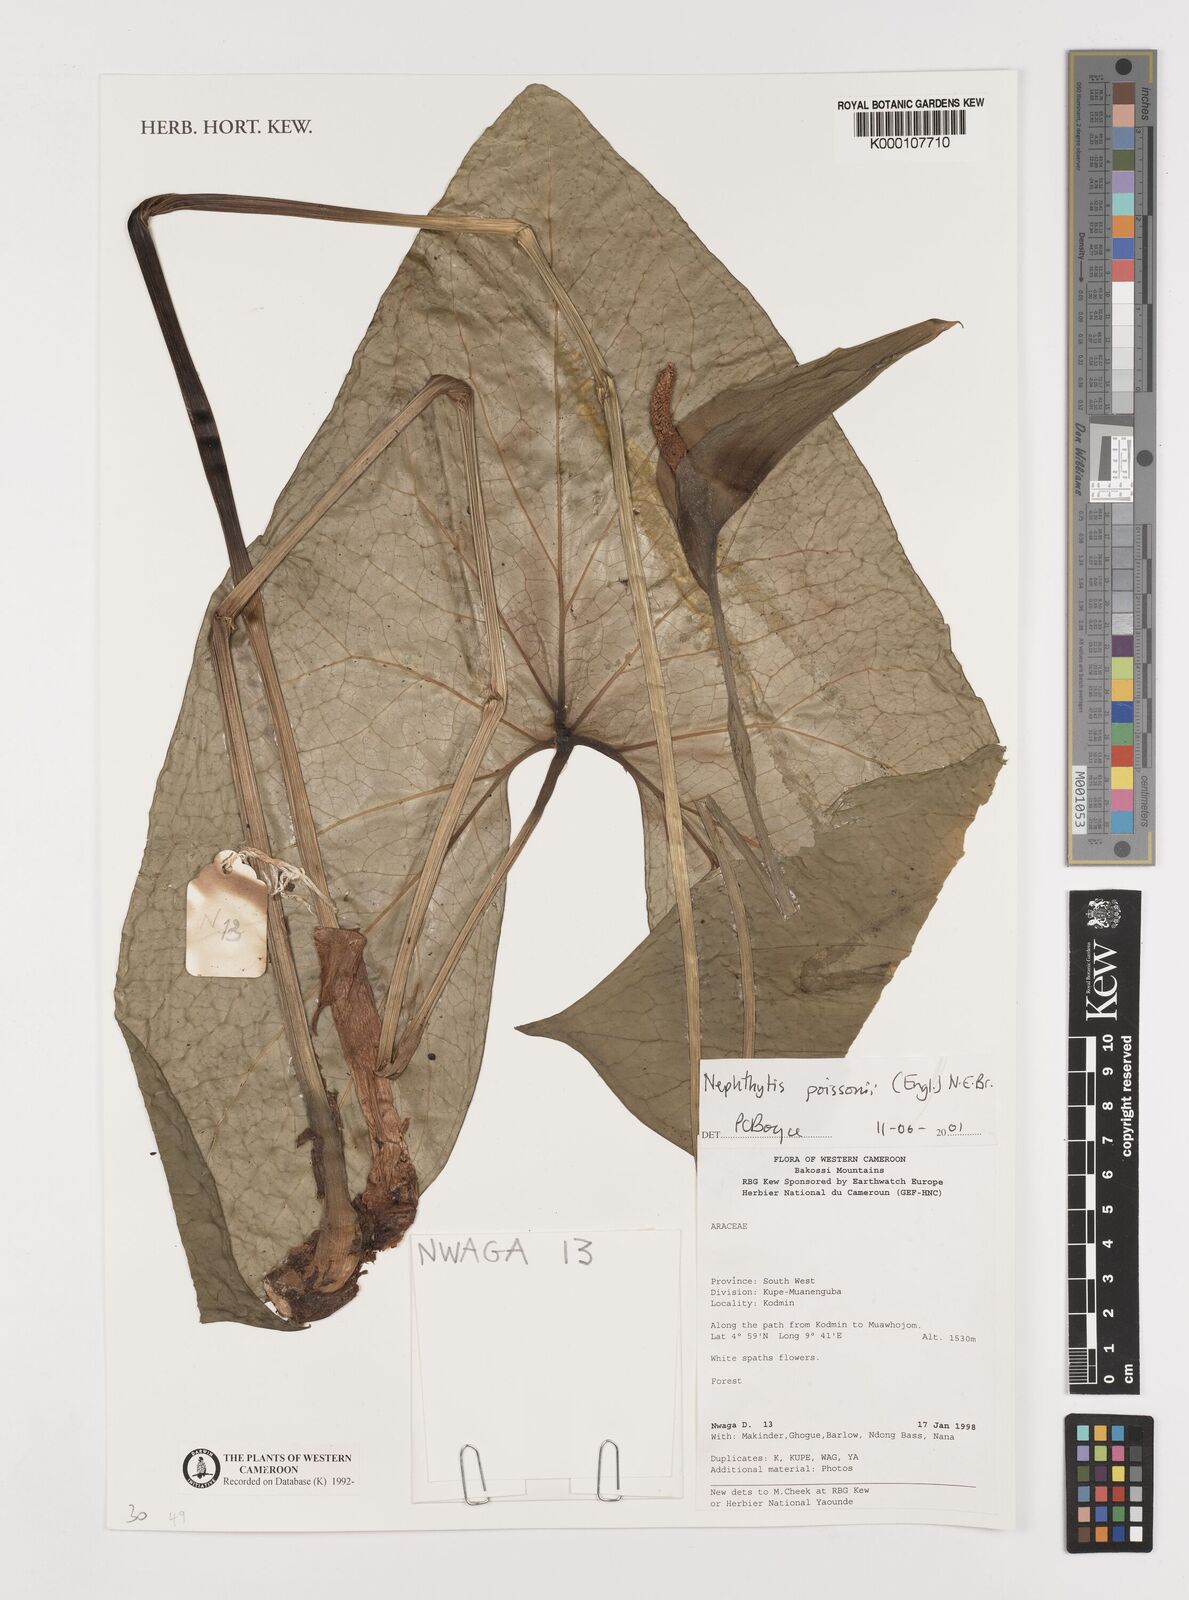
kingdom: Plantae
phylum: Tracheophyta
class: Liliopsida
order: Alismatales
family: Araceae
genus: Nephthytis
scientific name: Nephthytis poissonii
